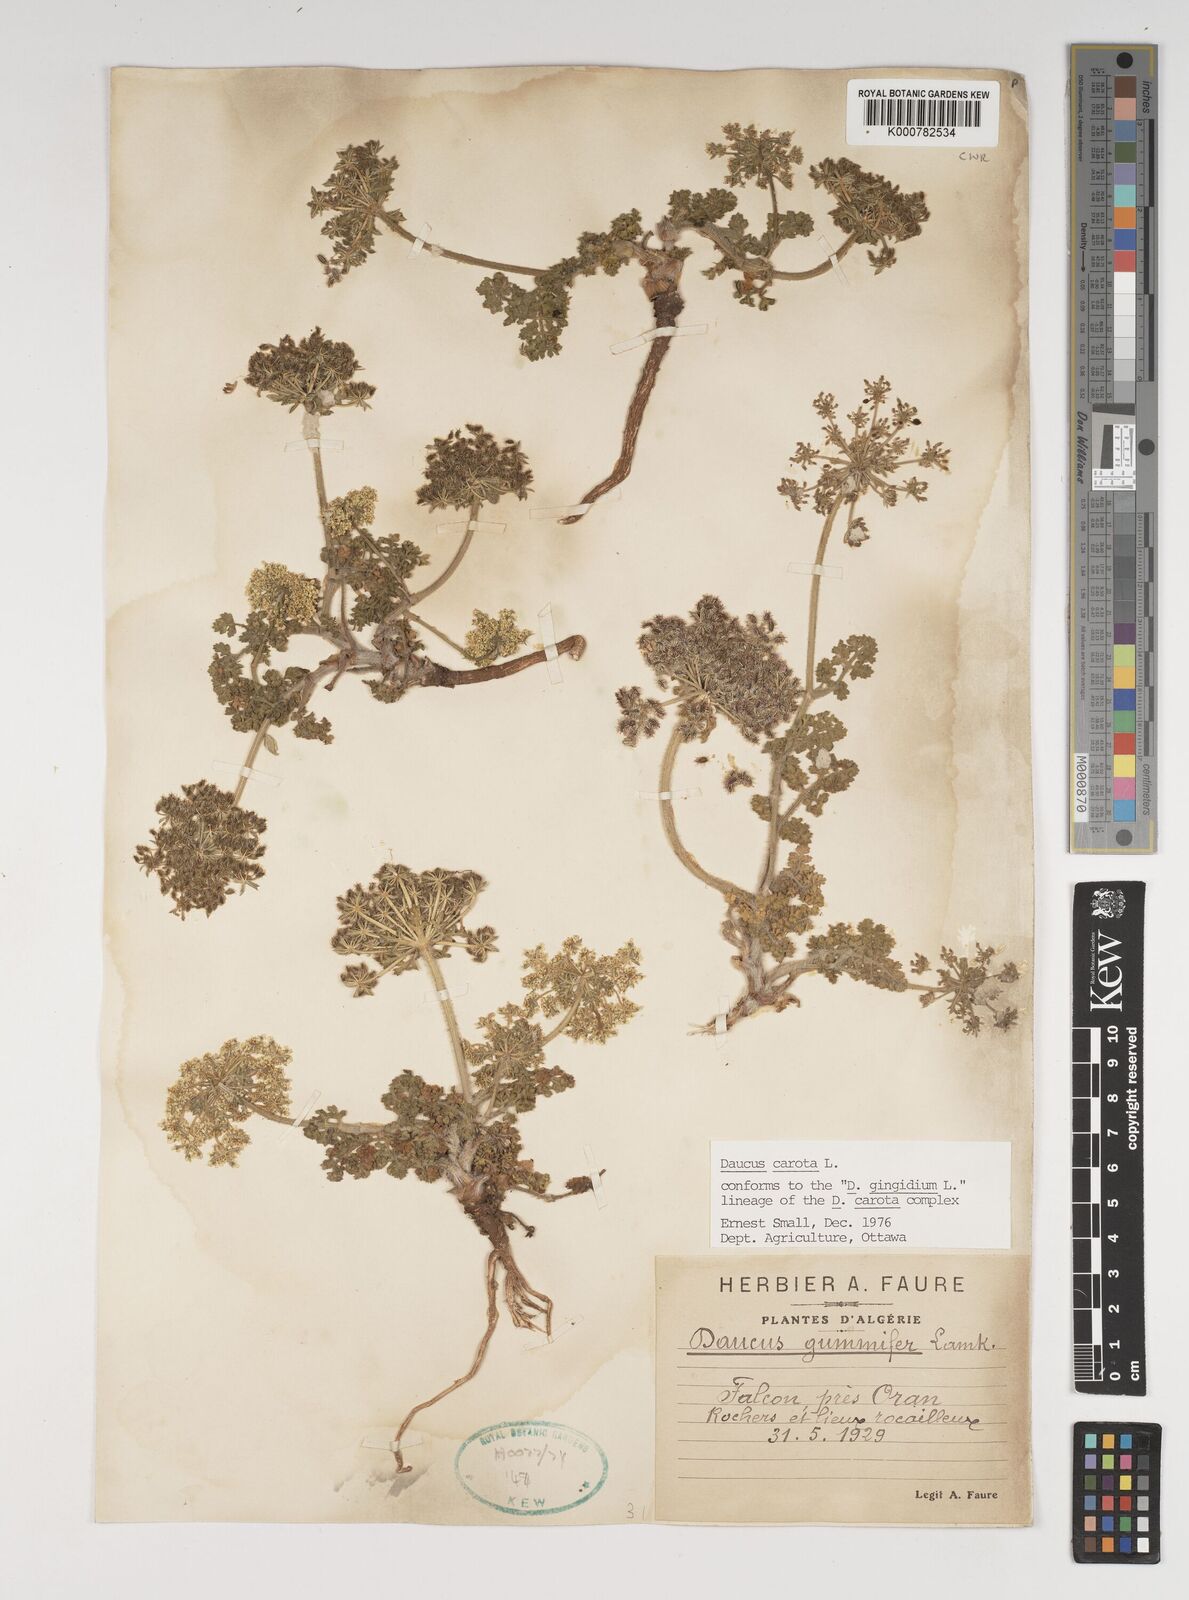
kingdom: Plantae
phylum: Tracheophyta
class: Magnoliopsida
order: Apiales
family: Apiaceae
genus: Daucus
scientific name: Daucus carota
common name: Wild carrot
